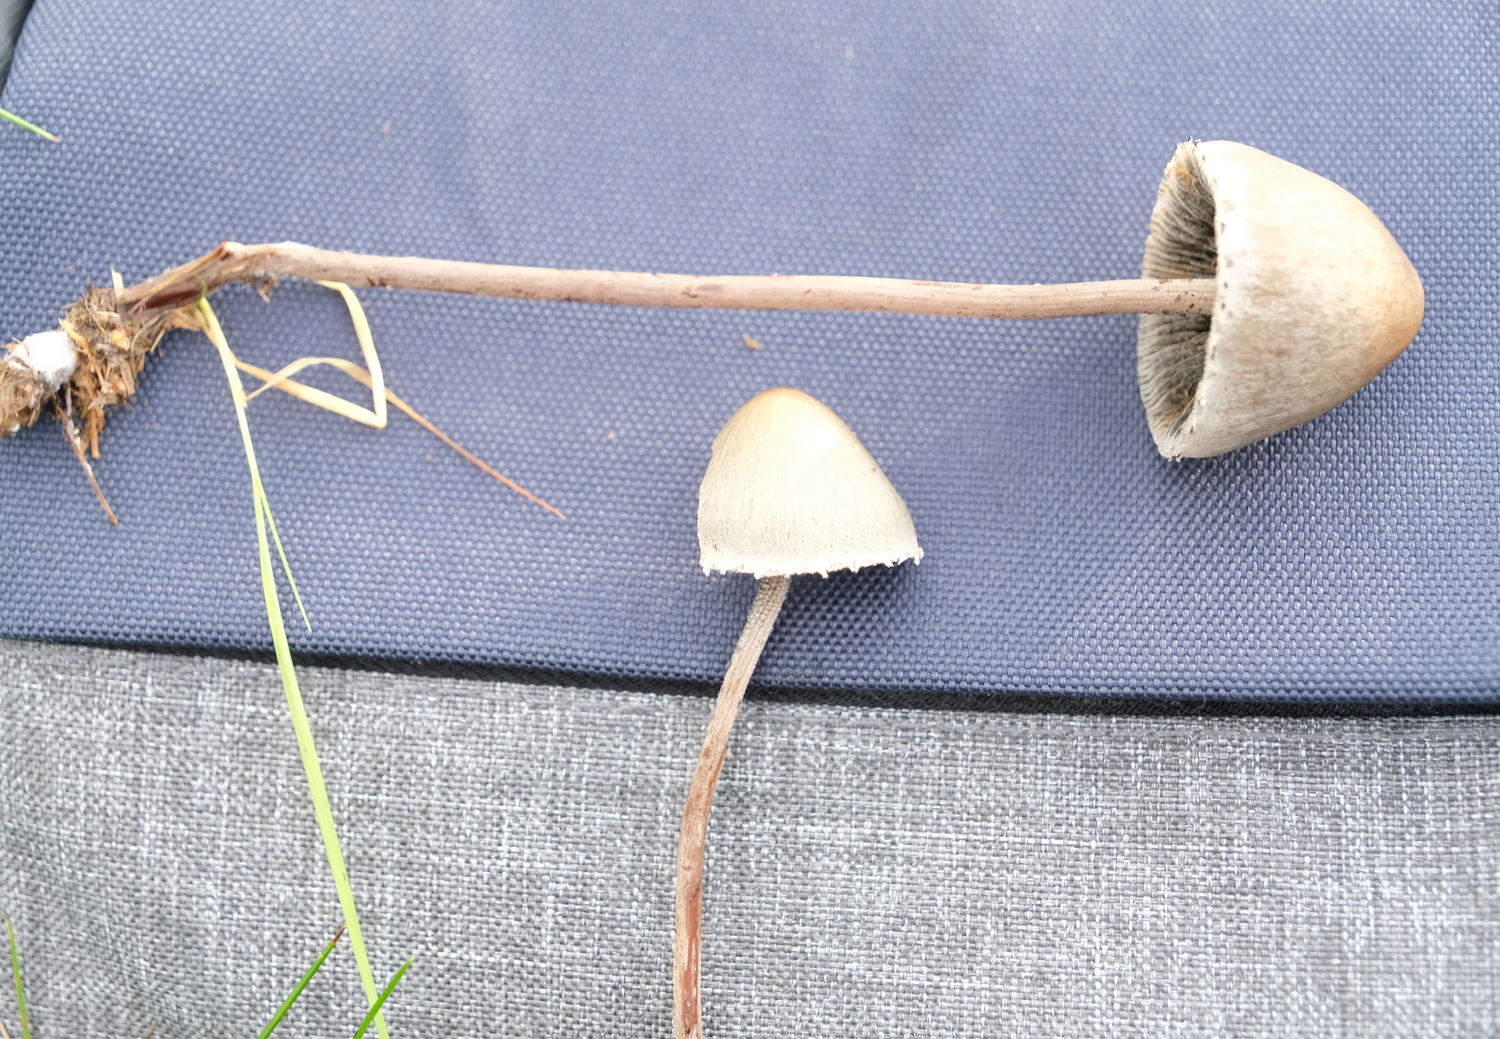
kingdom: Fungi
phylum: Basidiomycota
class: Agaricomycetes
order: Agaricales
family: Bolbitiaceae
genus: Panaeolus
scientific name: Panaeolus papilionaceus
